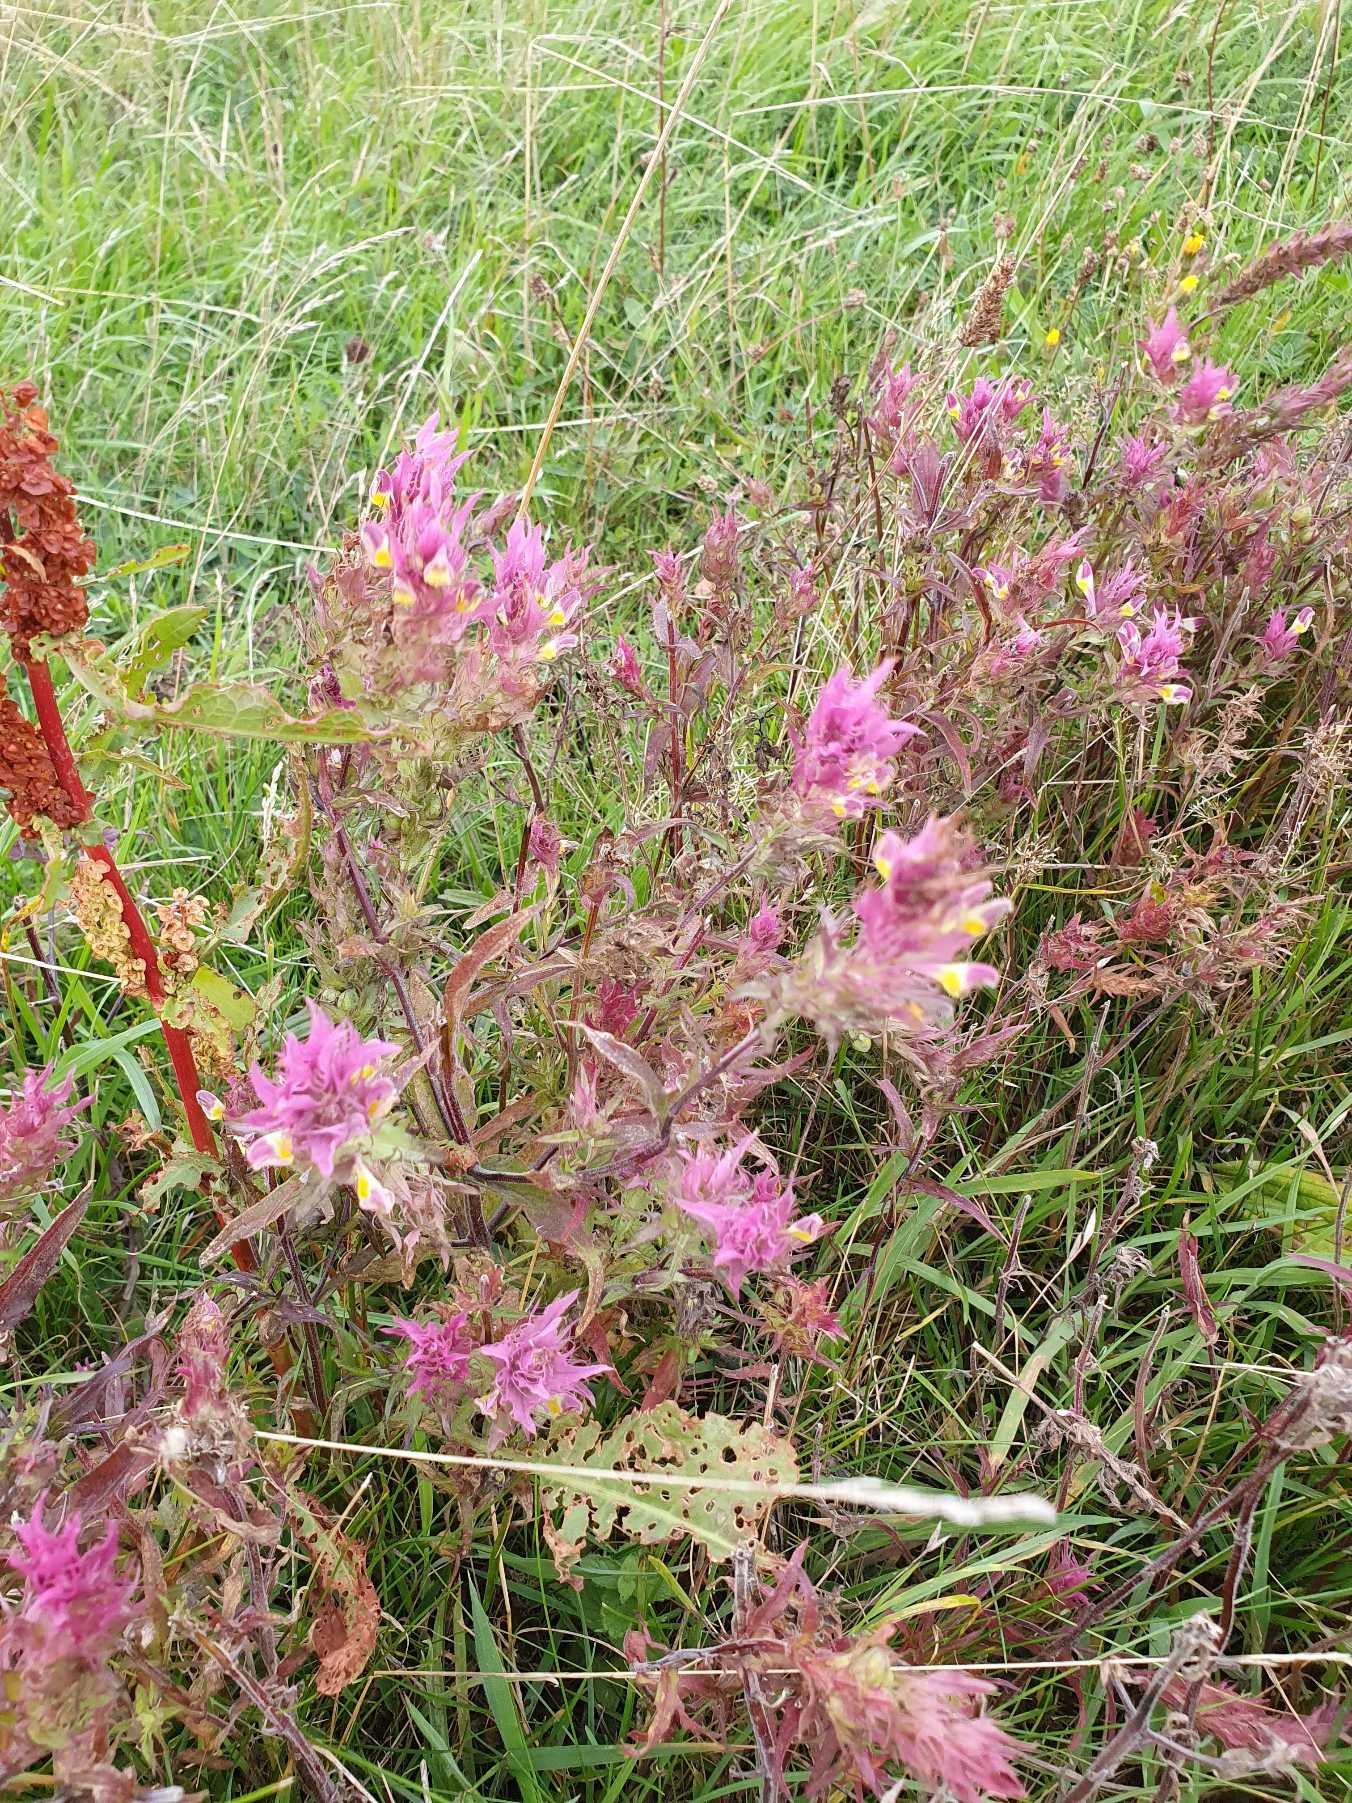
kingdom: Plantae
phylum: Tracheophyta
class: Magnoliopsida
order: Lamiales
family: Orobanchaceae
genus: Melampyrum
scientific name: Melampyrum arvense
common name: Ager-kohvede
